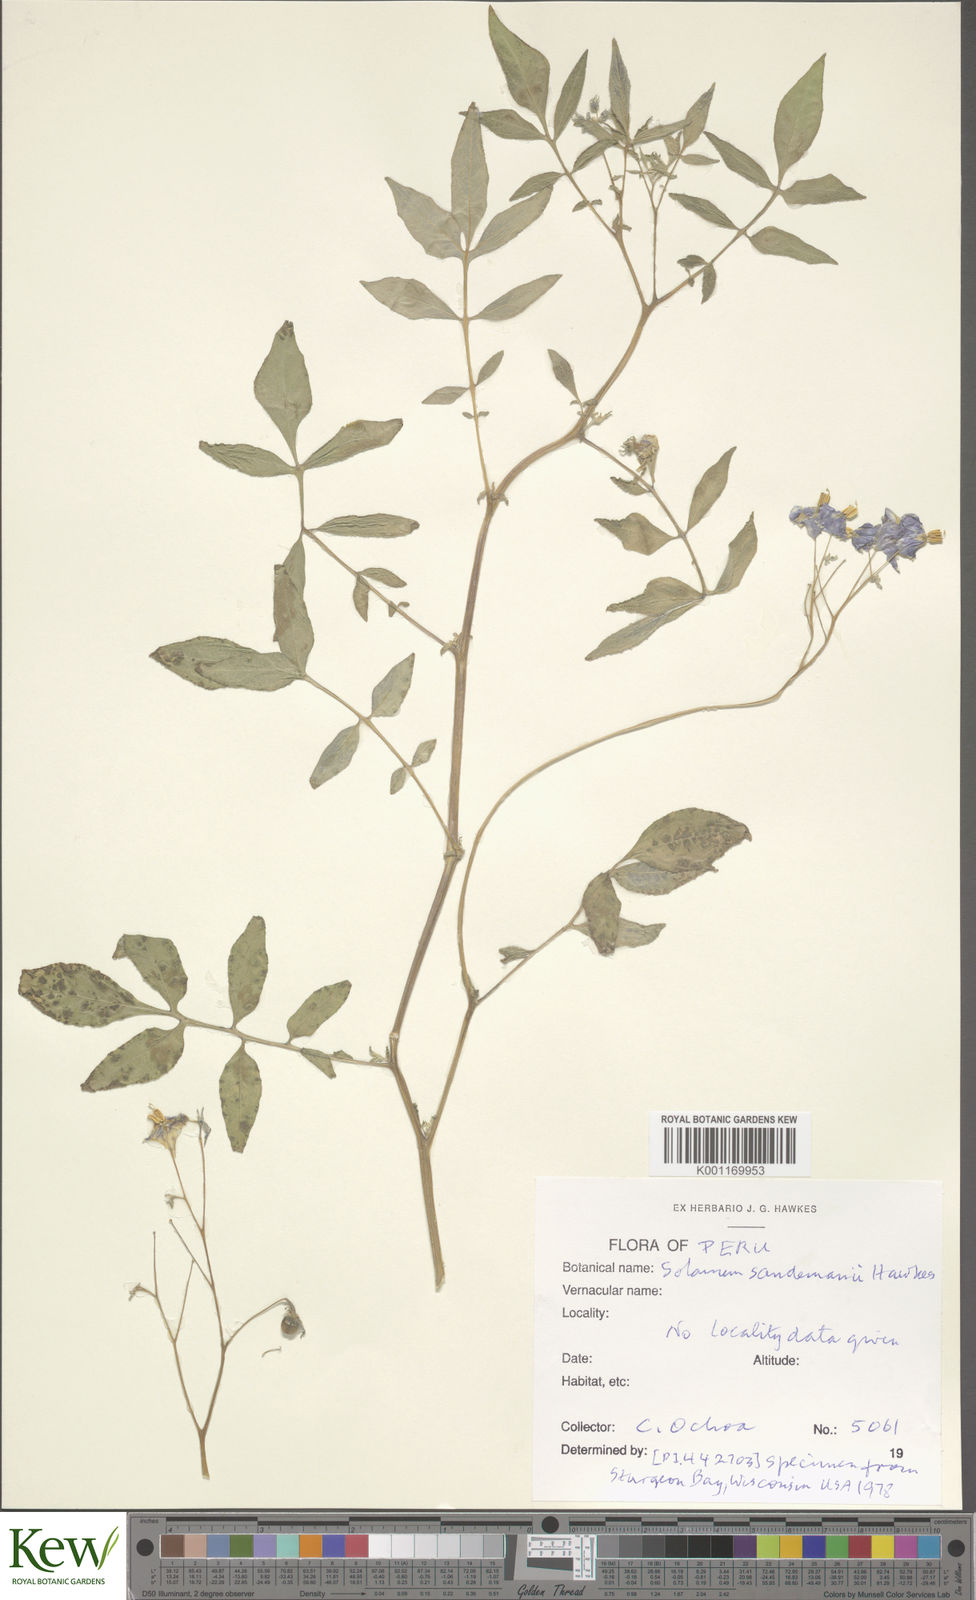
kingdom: Plantae
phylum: Tracheophyta
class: Magnoliopsida
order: Solanales
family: Solanaceae
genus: Solanum
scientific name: Solanum medians
